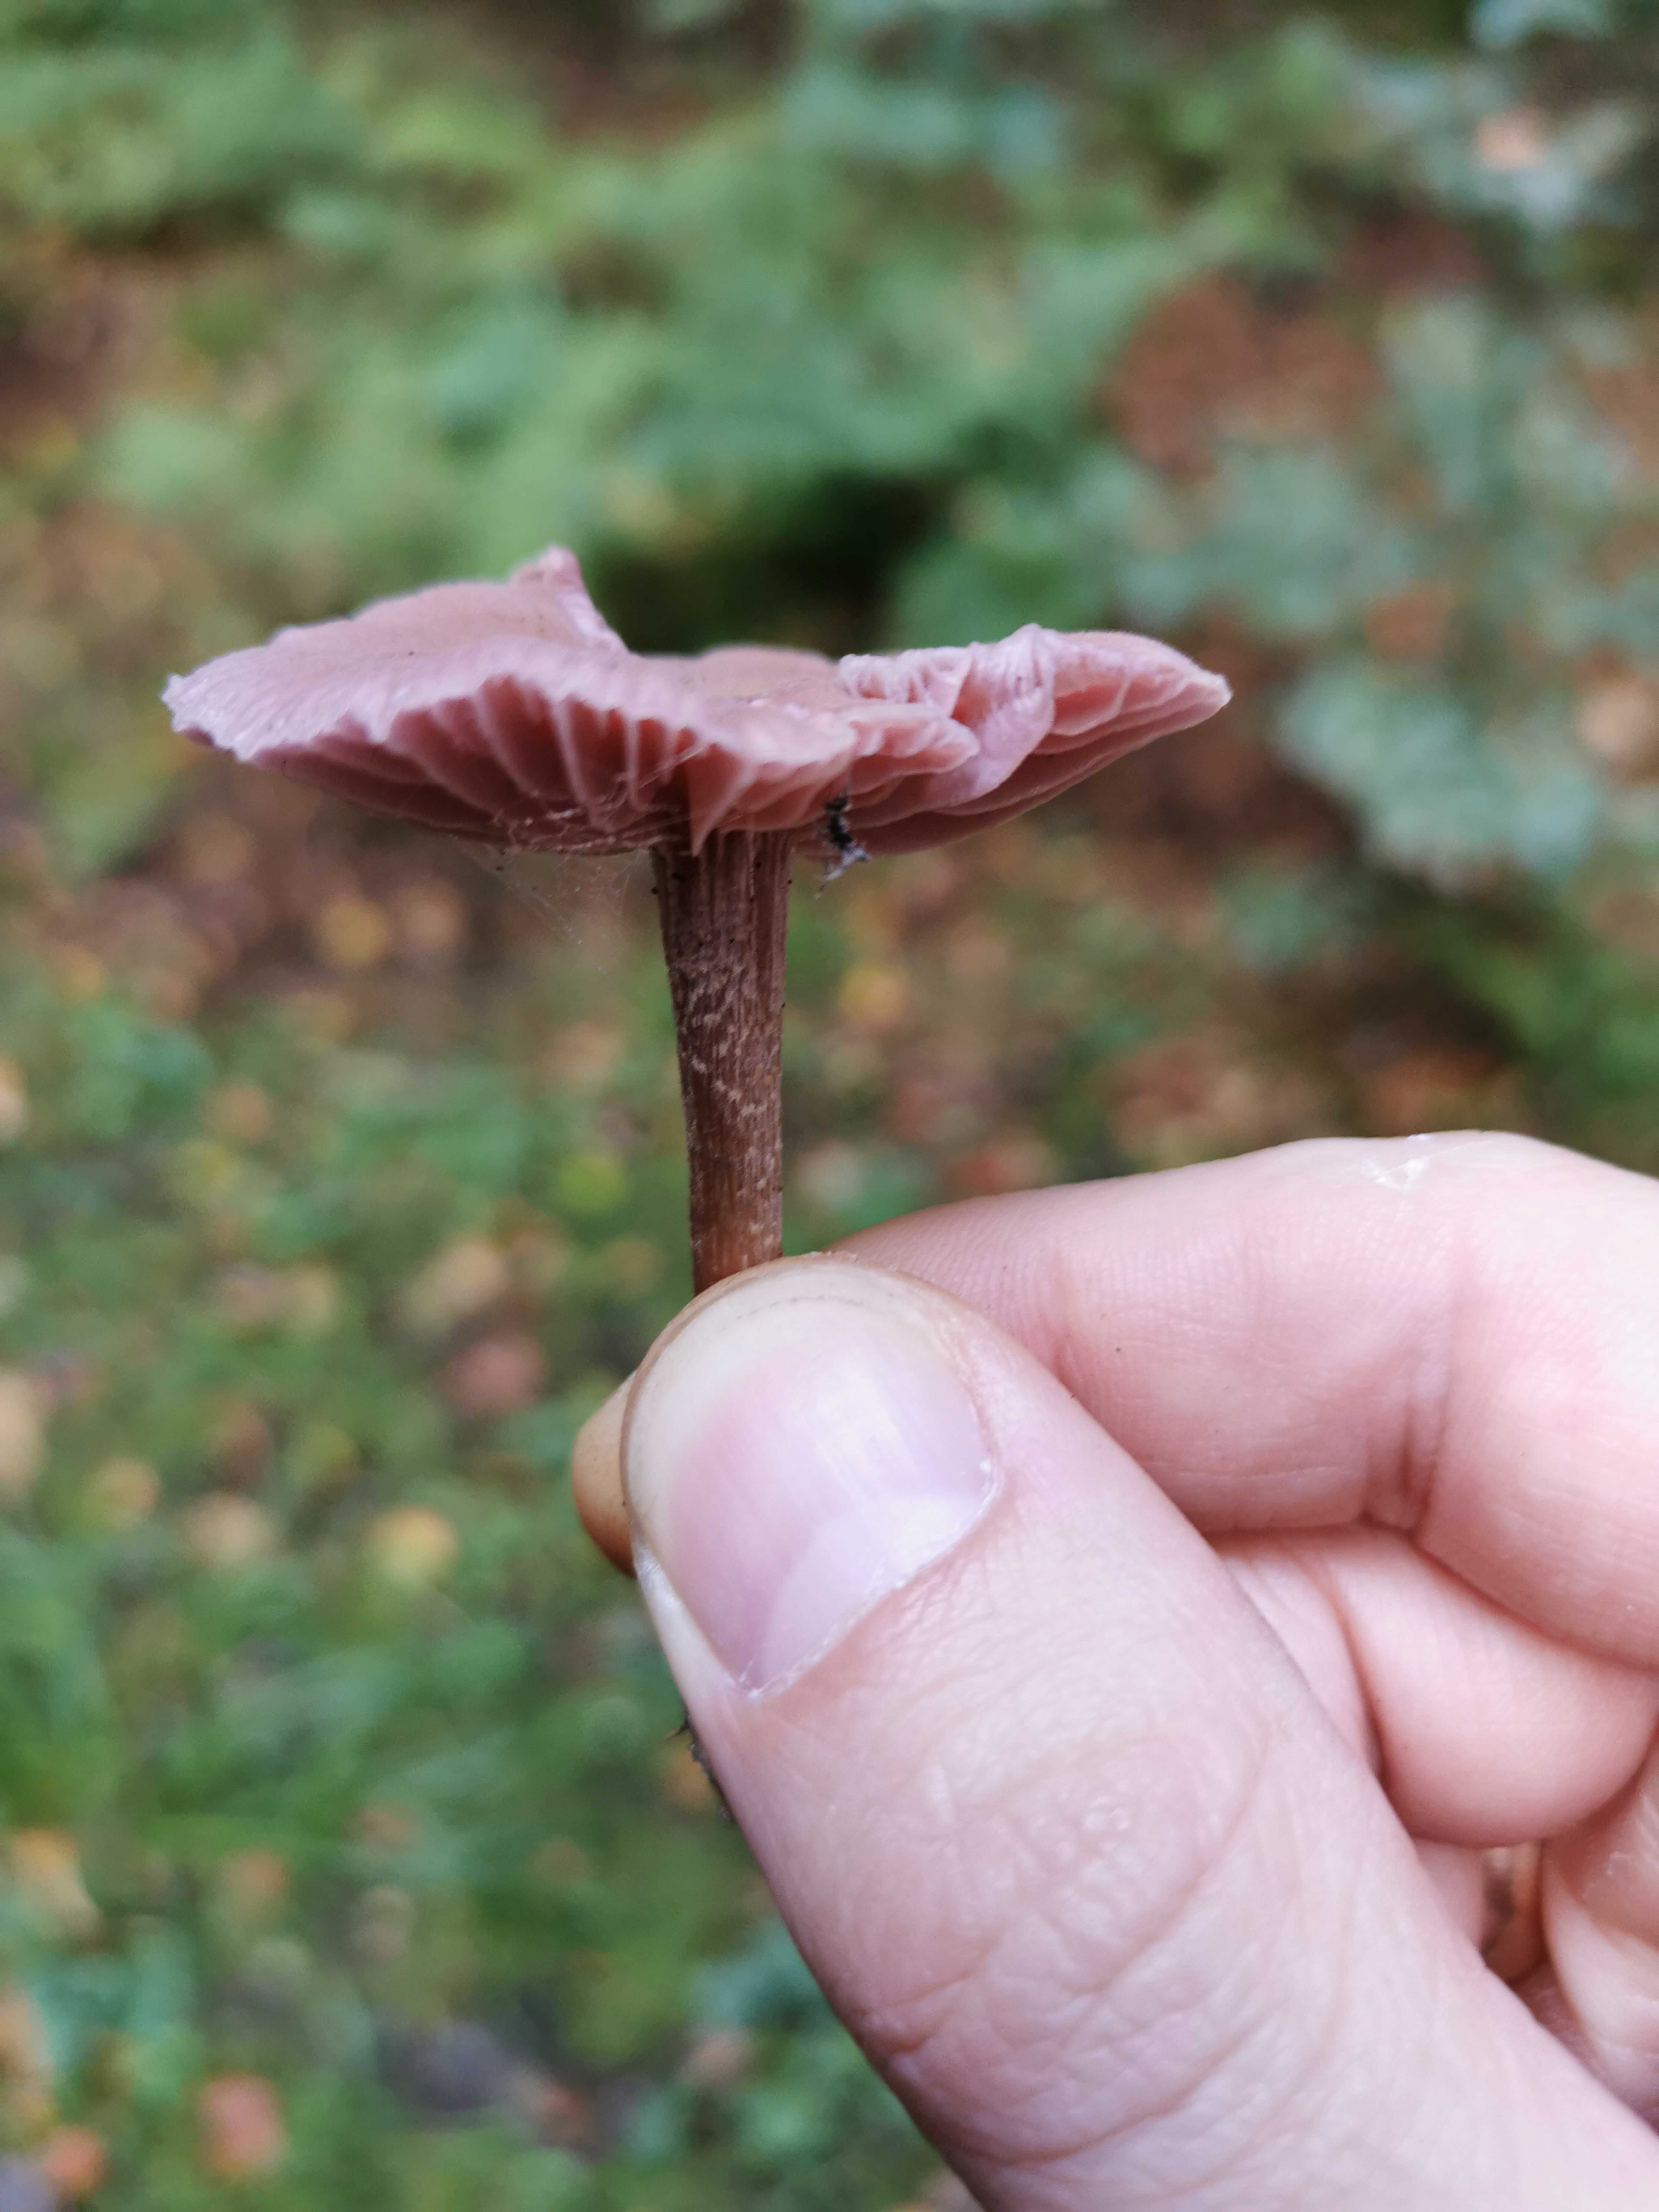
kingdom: Fungi
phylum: Basidiomycota
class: Agaricomycetes
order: Agaricales
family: Hydnangiaceae
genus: Laccaria
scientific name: Laccaria amethystina
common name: violet ametysthat
